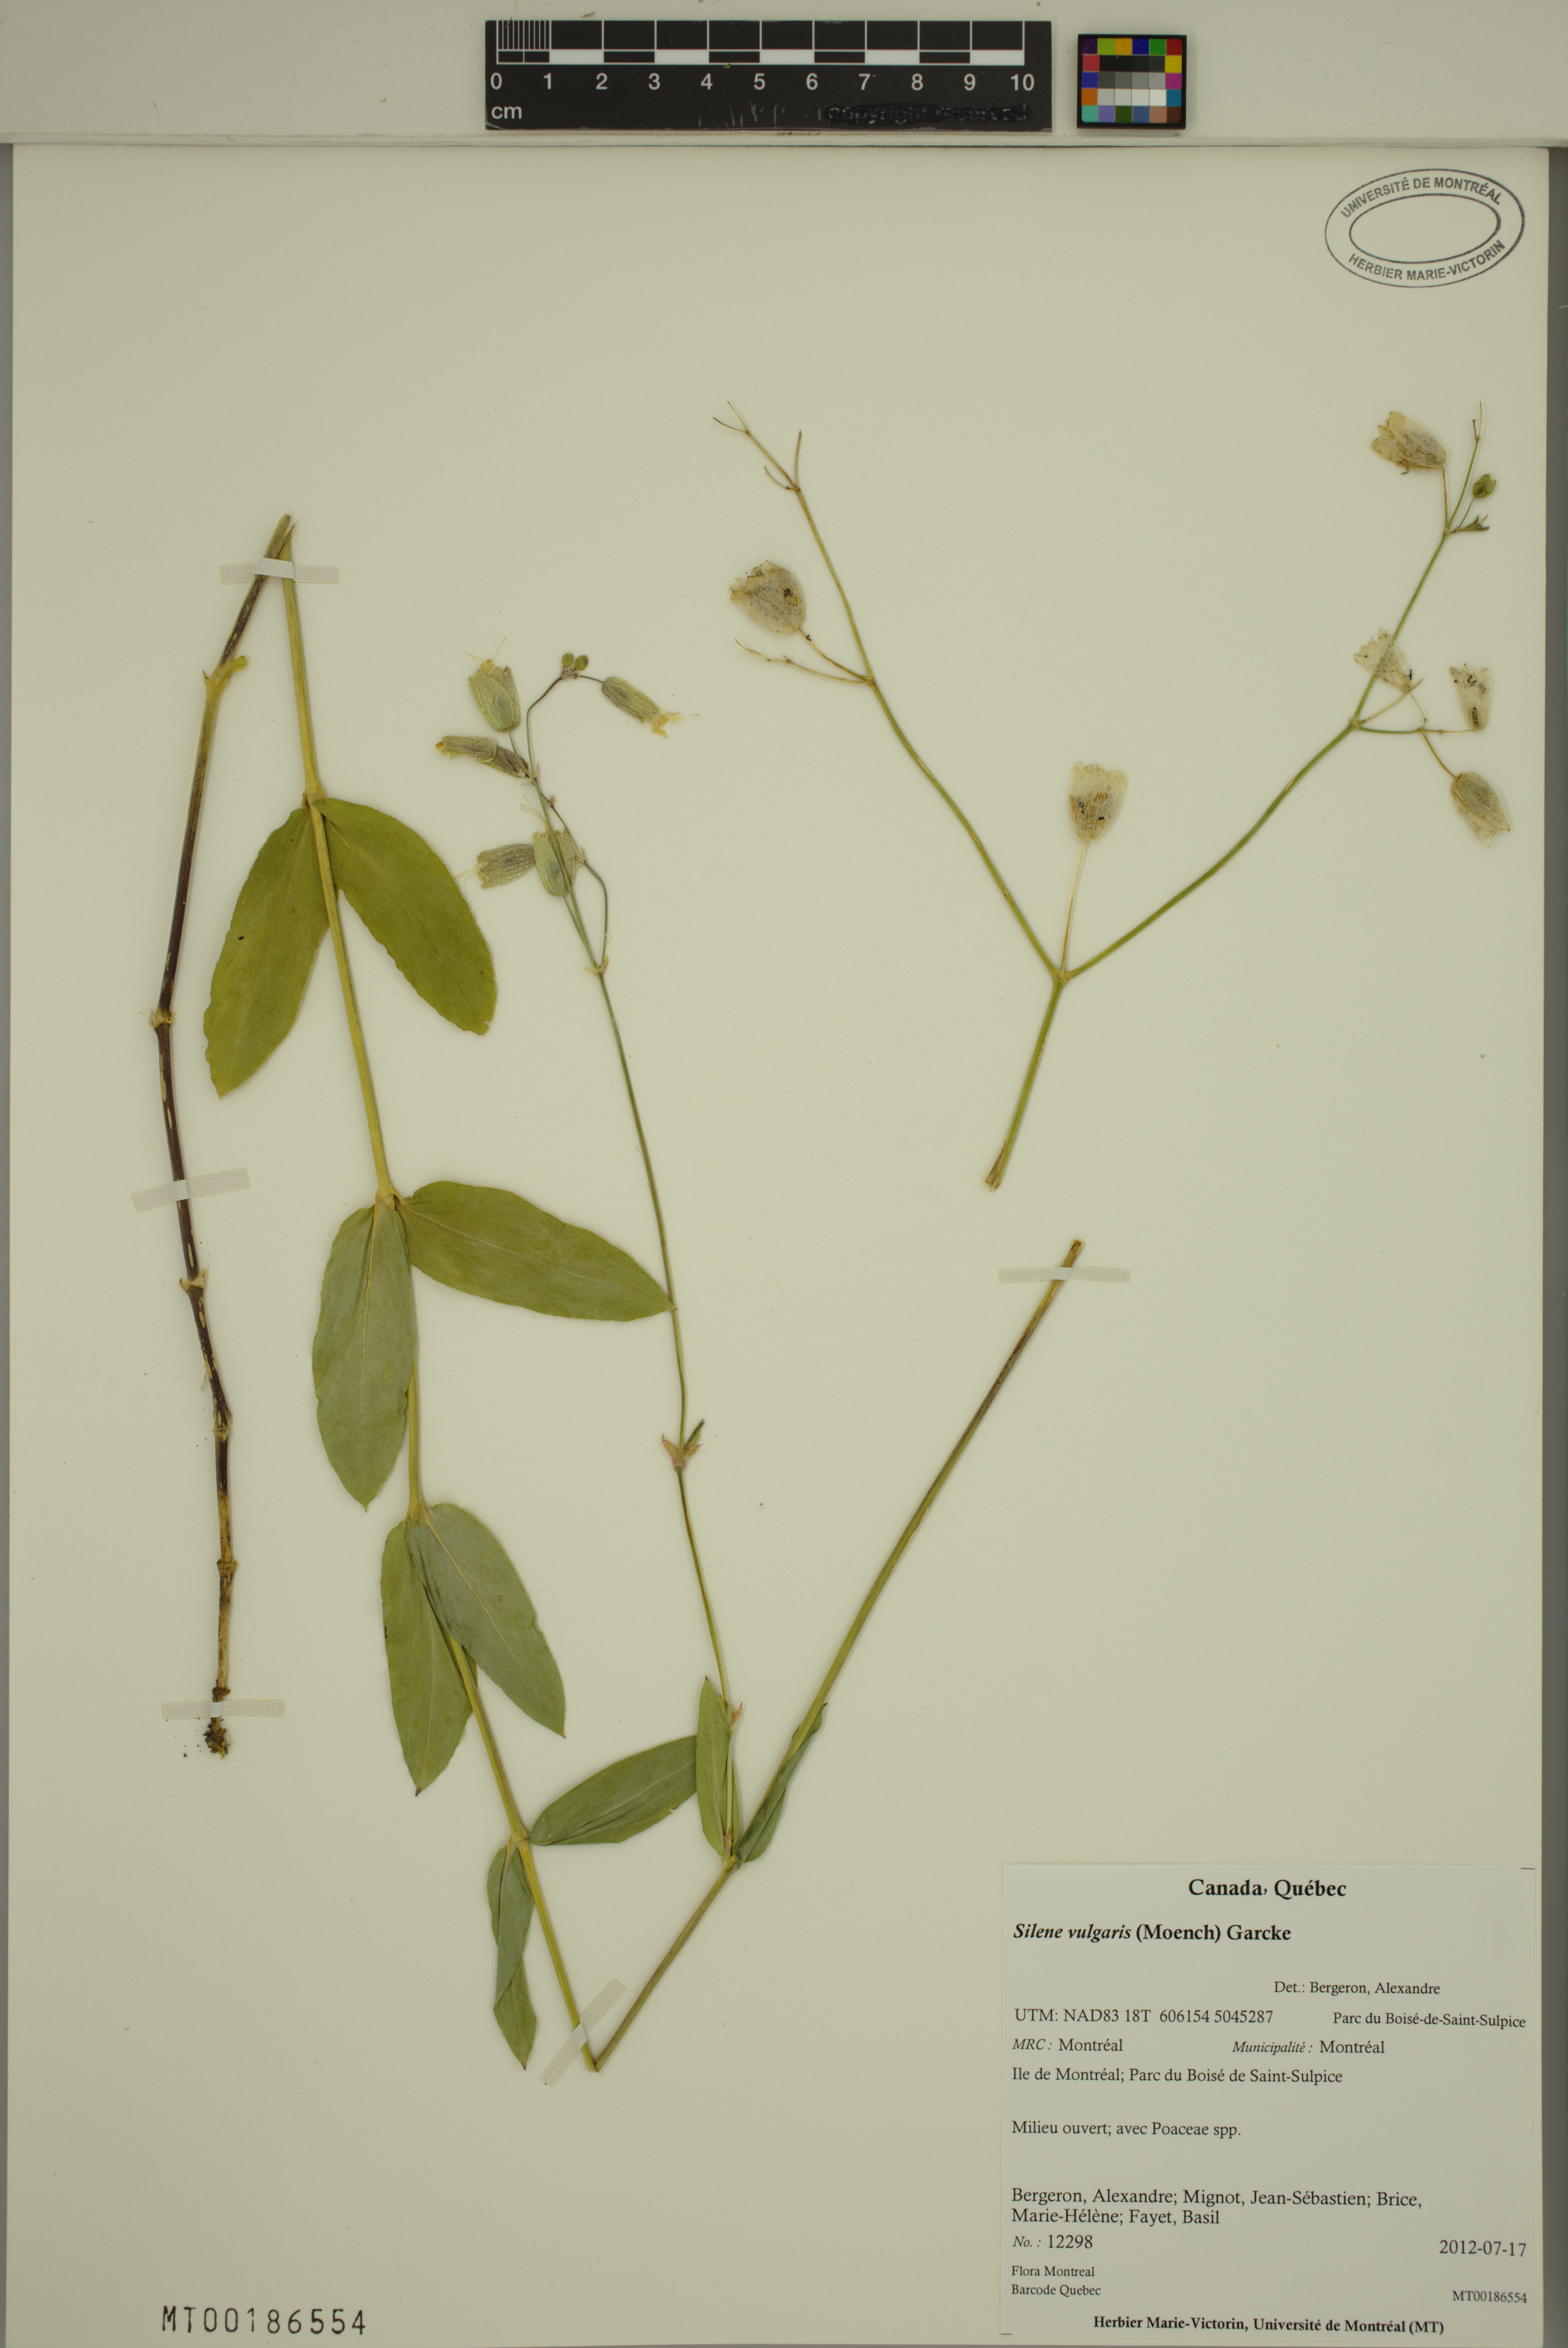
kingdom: Plantae
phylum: Tracheophyta
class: Magnoliopsida
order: Caryophyllales
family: Caryophyllaceae
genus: Silene
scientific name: Silene vulgaris
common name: Bladder campion
